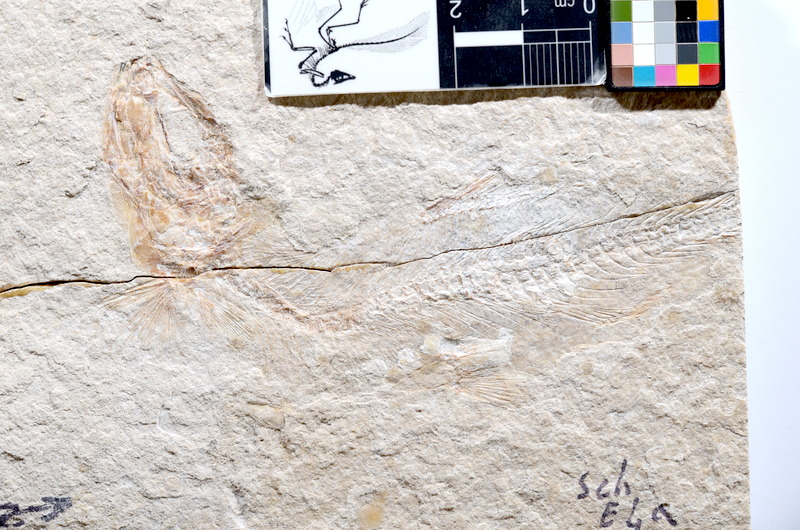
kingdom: Animalia
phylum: Chordata
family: Ascalaboidae
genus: Tharsis
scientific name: Tharsis dubius
